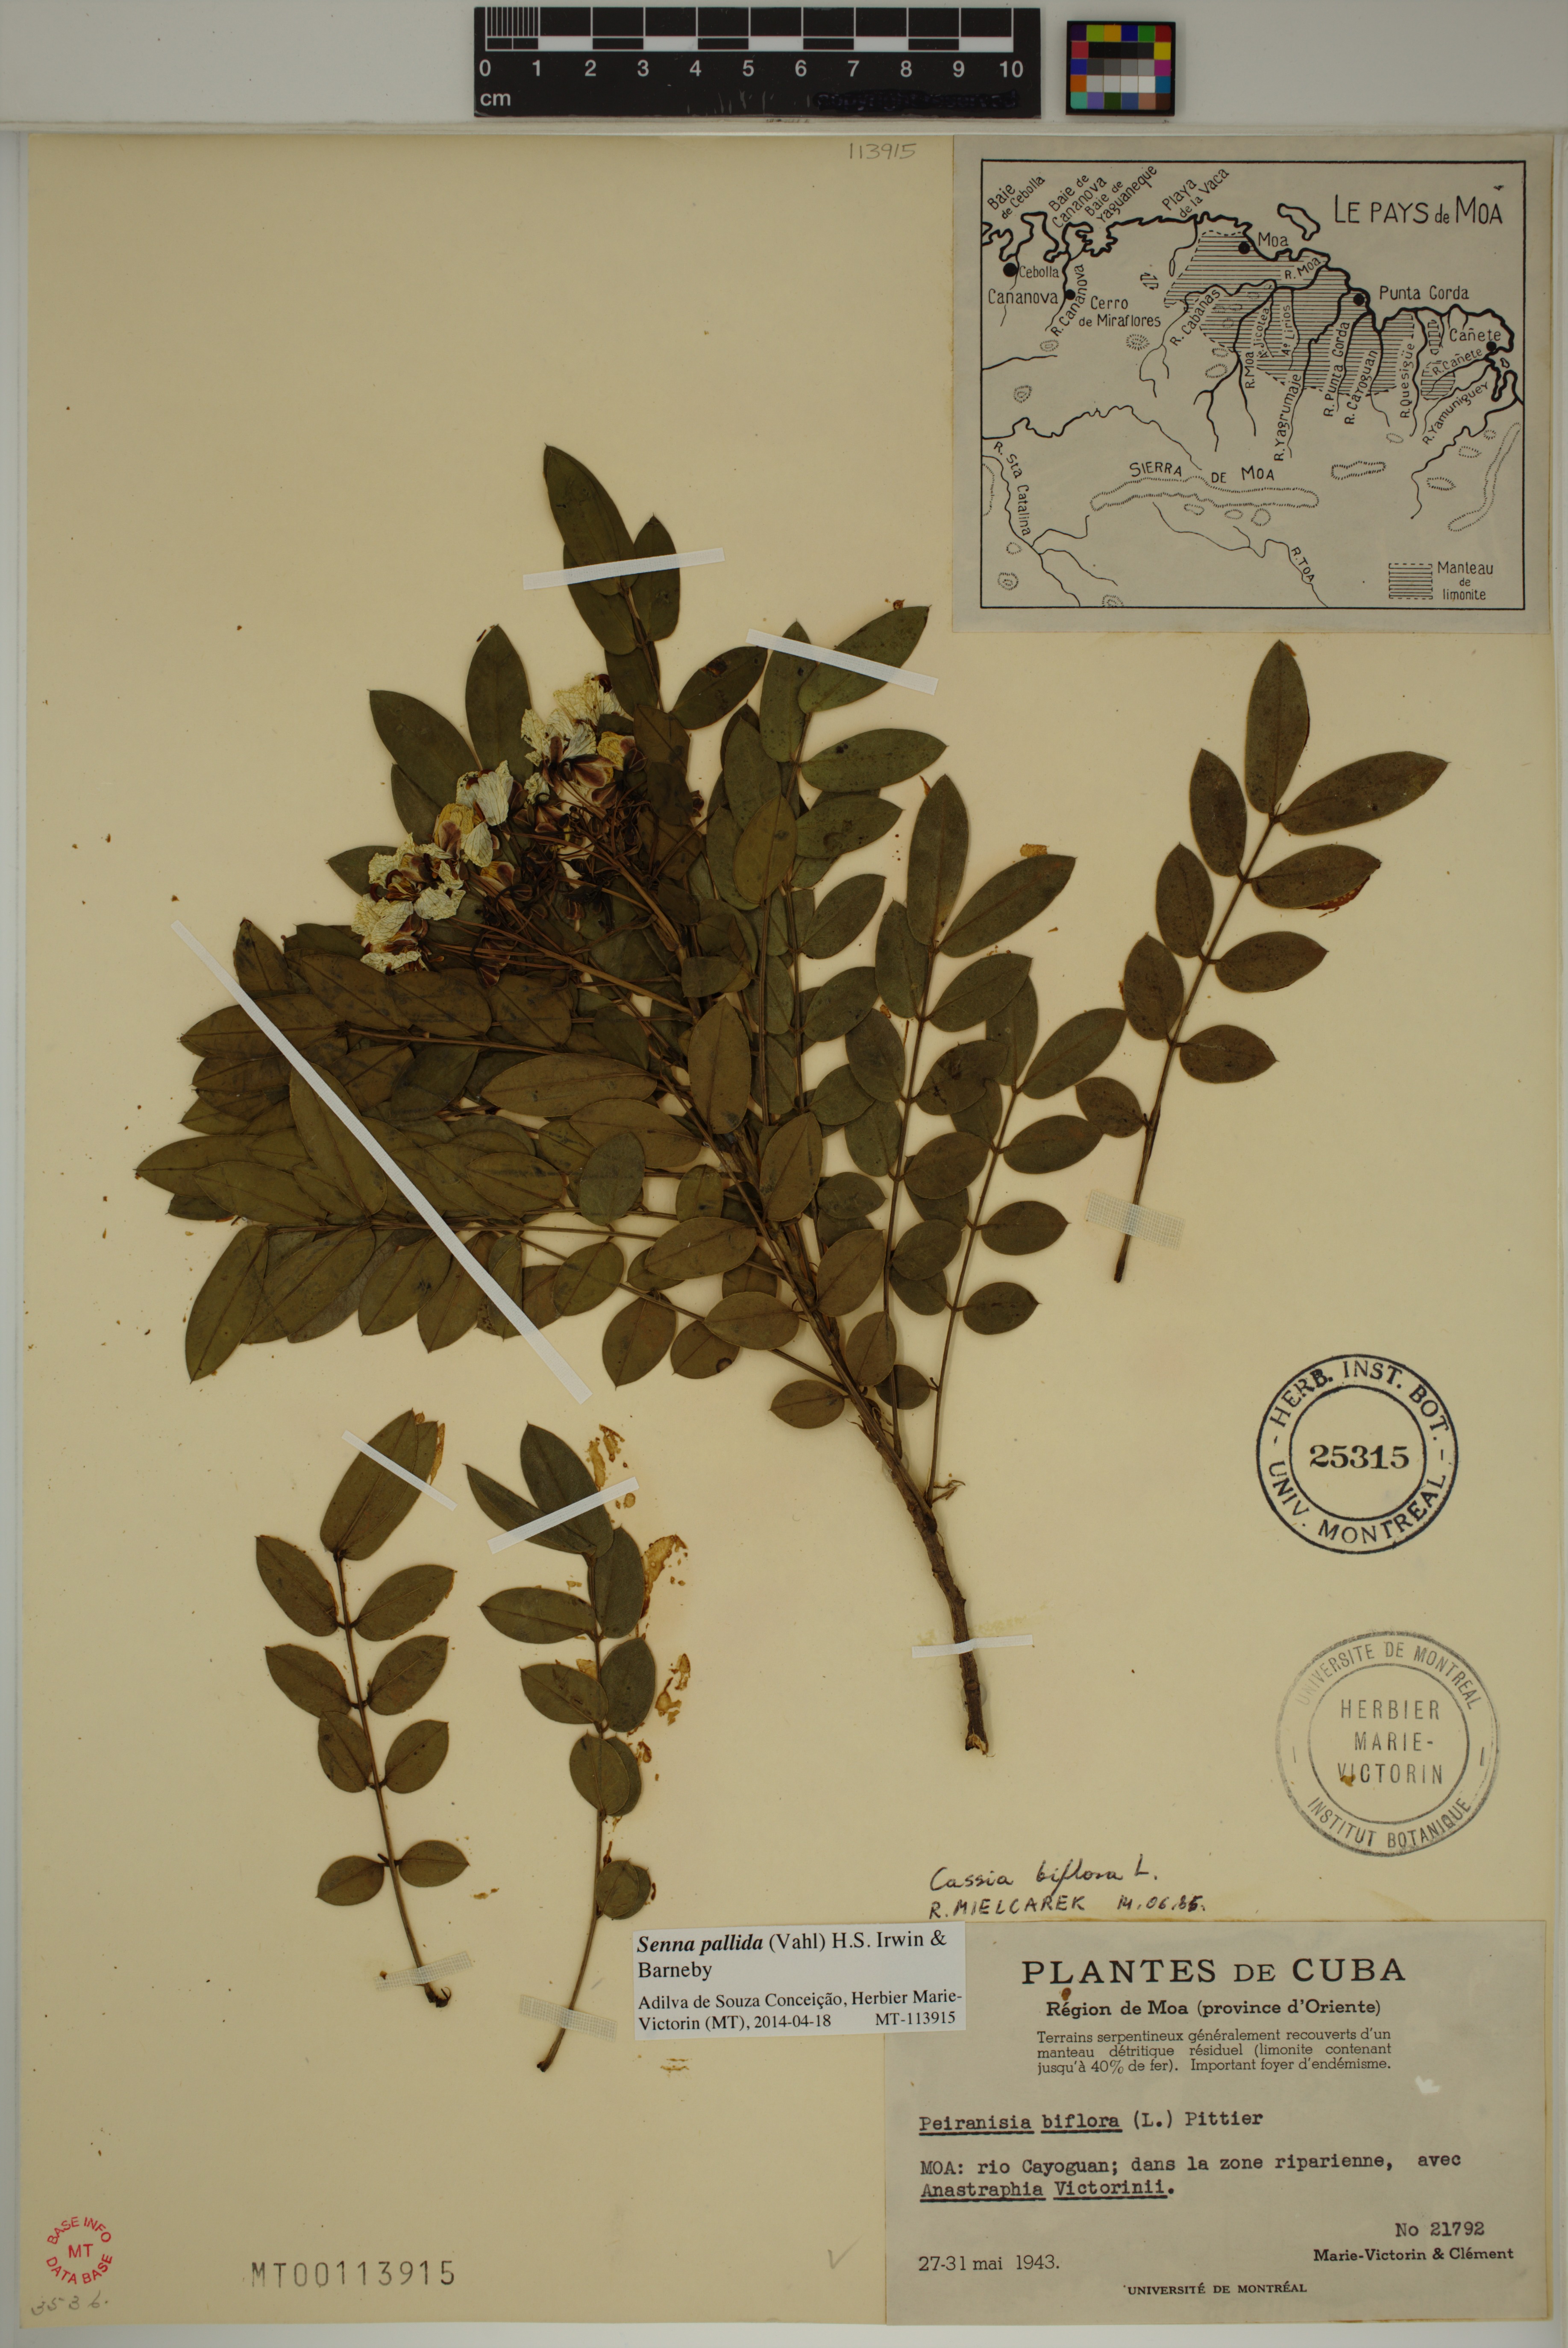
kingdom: Plantae
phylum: Tracheophyta
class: Magnoliopsida
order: Fabales
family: Fabaceae
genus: Senna
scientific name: Senna pallida
